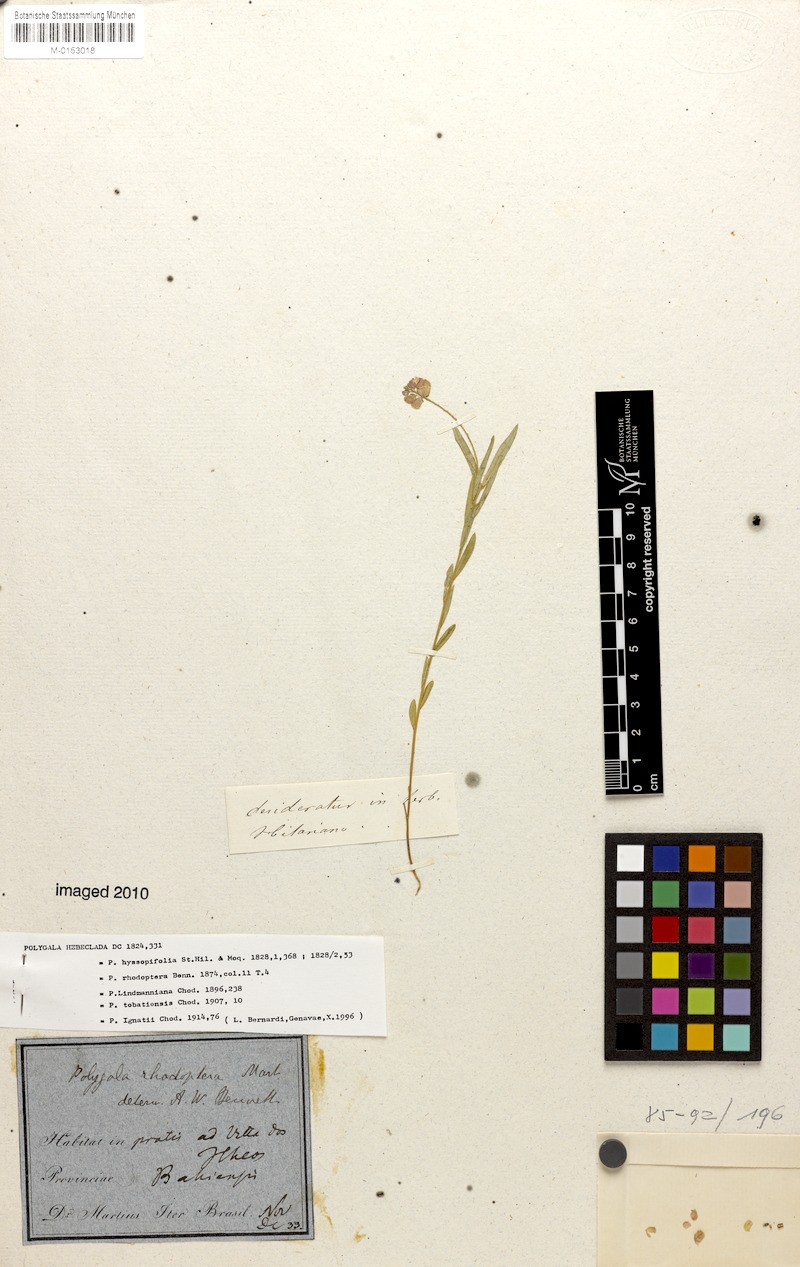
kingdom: Plantae
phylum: Tracheophyta
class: Magnoliopsida
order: Fabales
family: Polygalaceae
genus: Asemeia
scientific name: Asemeia rhodoptera
